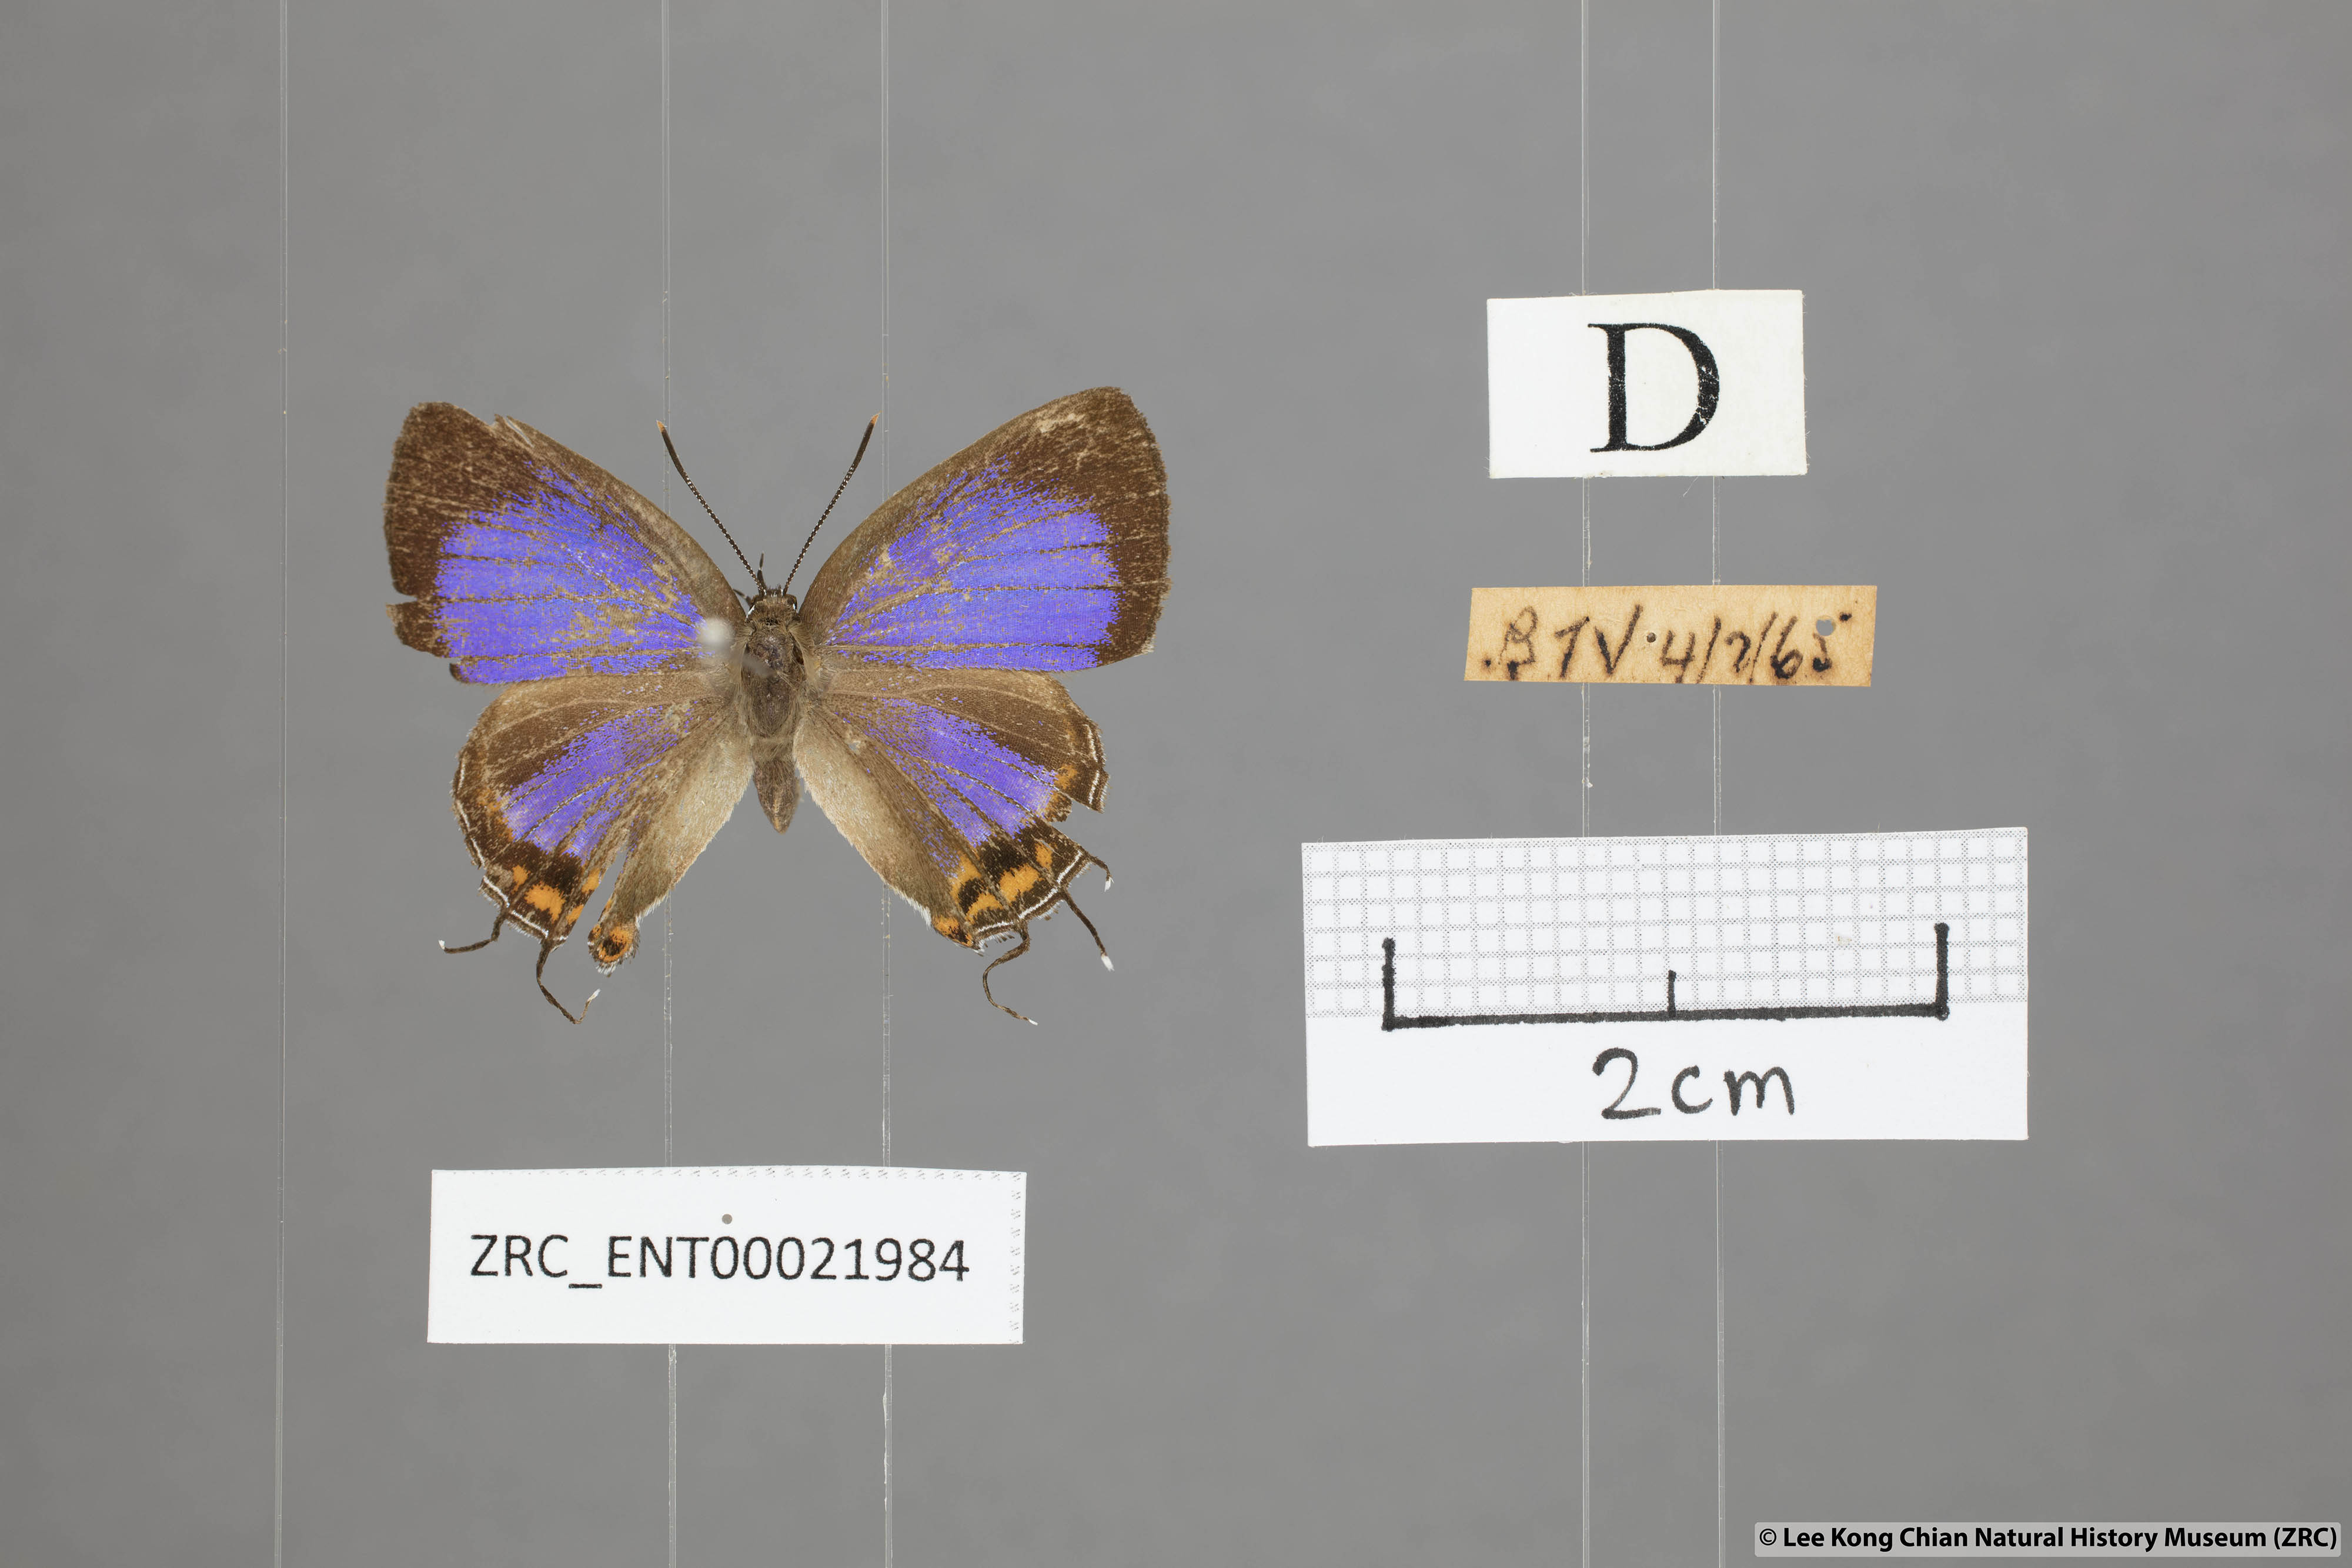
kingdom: Animalia
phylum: Arthropoda
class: Insecta
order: Lepidoptera
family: Lycaenidae
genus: Semanga
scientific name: Semanga superba
